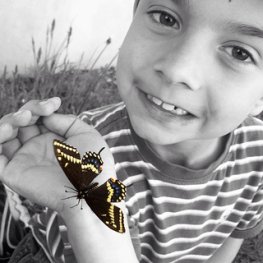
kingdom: Animalia
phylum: Arthropoda
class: Insecta
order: Lepidoptera
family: Papilionidae
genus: Papilio
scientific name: Papilio polyxenes
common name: Black Swallowtail
